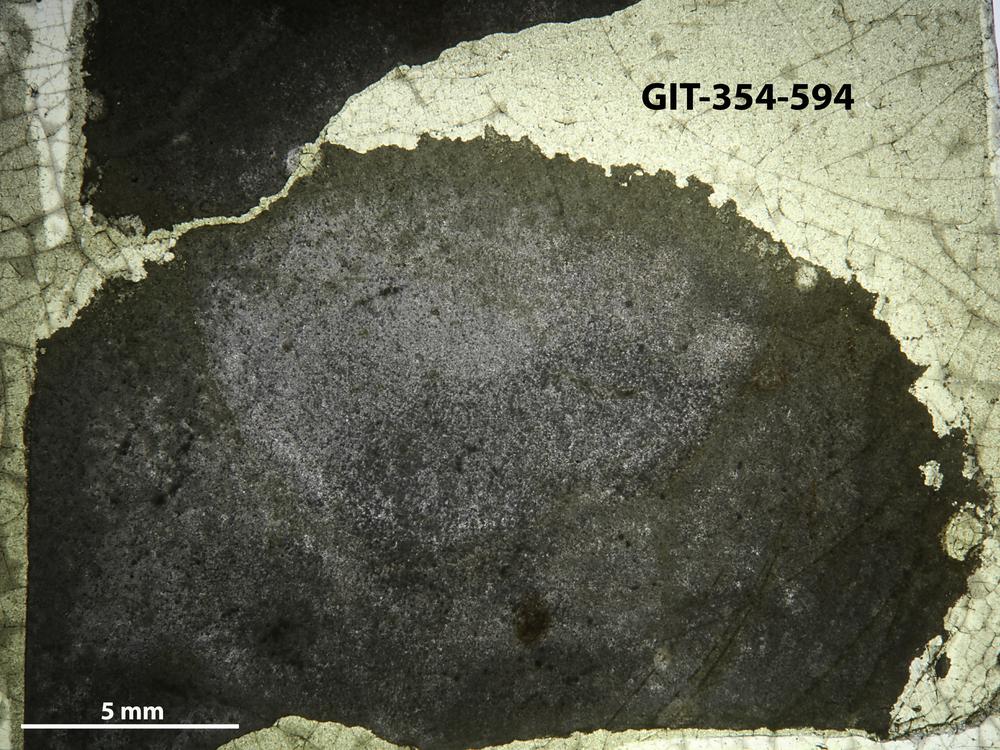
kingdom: Animalia
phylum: Porifera
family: Densastromatidae
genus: Densastroma
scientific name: Densastroma Actinostroma pexisum
